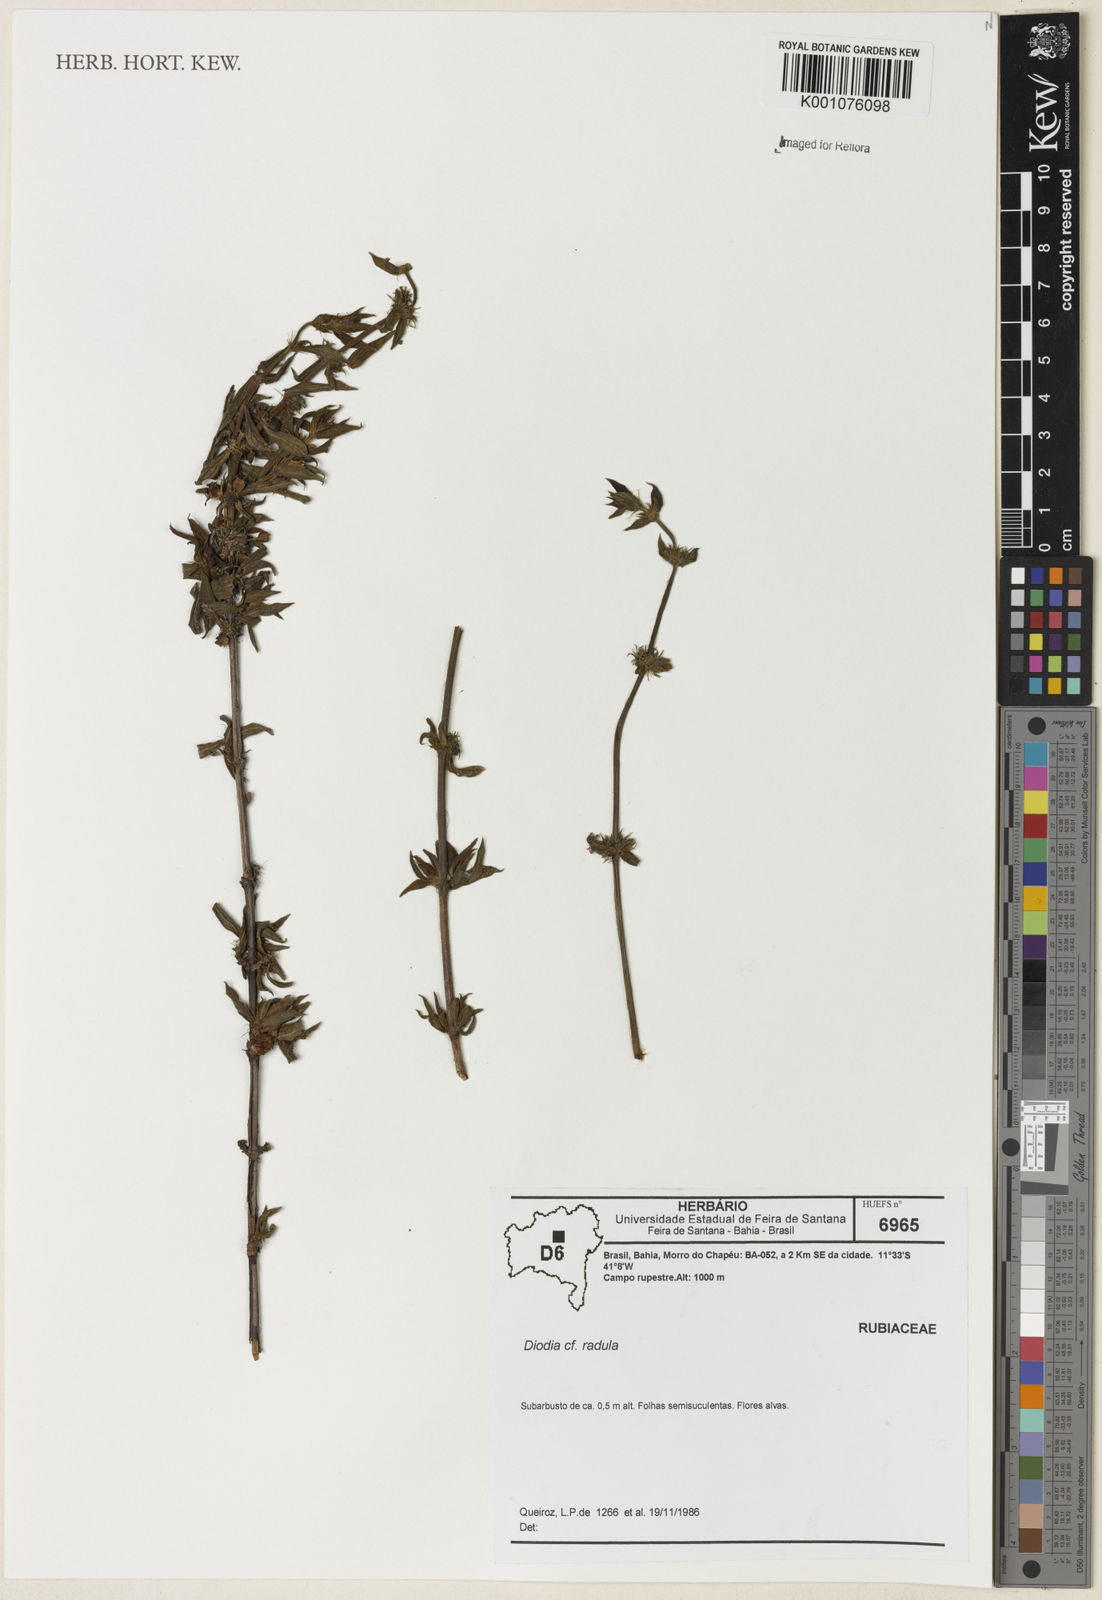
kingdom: Plantae
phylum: Tracheophyta
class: Magnoliopsida
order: Gentianales
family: Rubiaceae
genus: Hexasepalum
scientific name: Hexasepalum radulum
